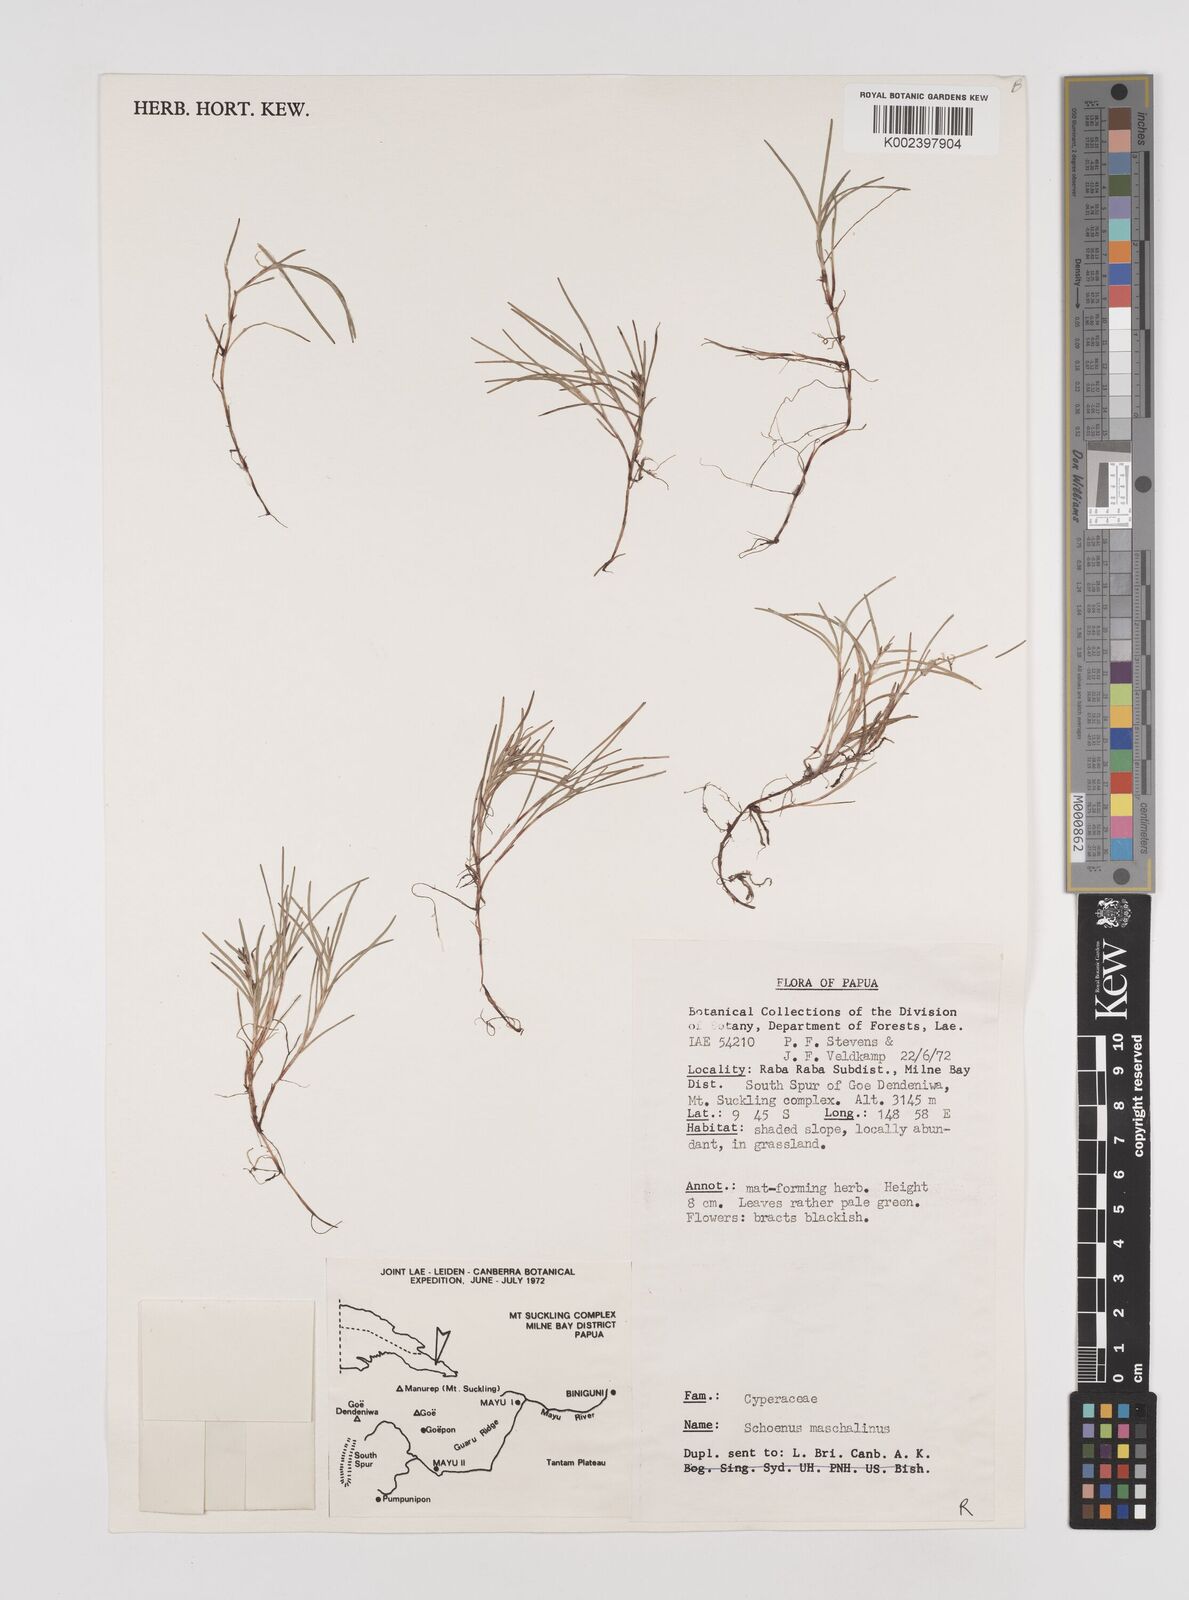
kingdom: Plantae
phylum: Tracheophyta
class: Liliopsida
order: Poales
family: Cyperaceae
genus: Schoenus
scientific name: Schoenus maschalinus
